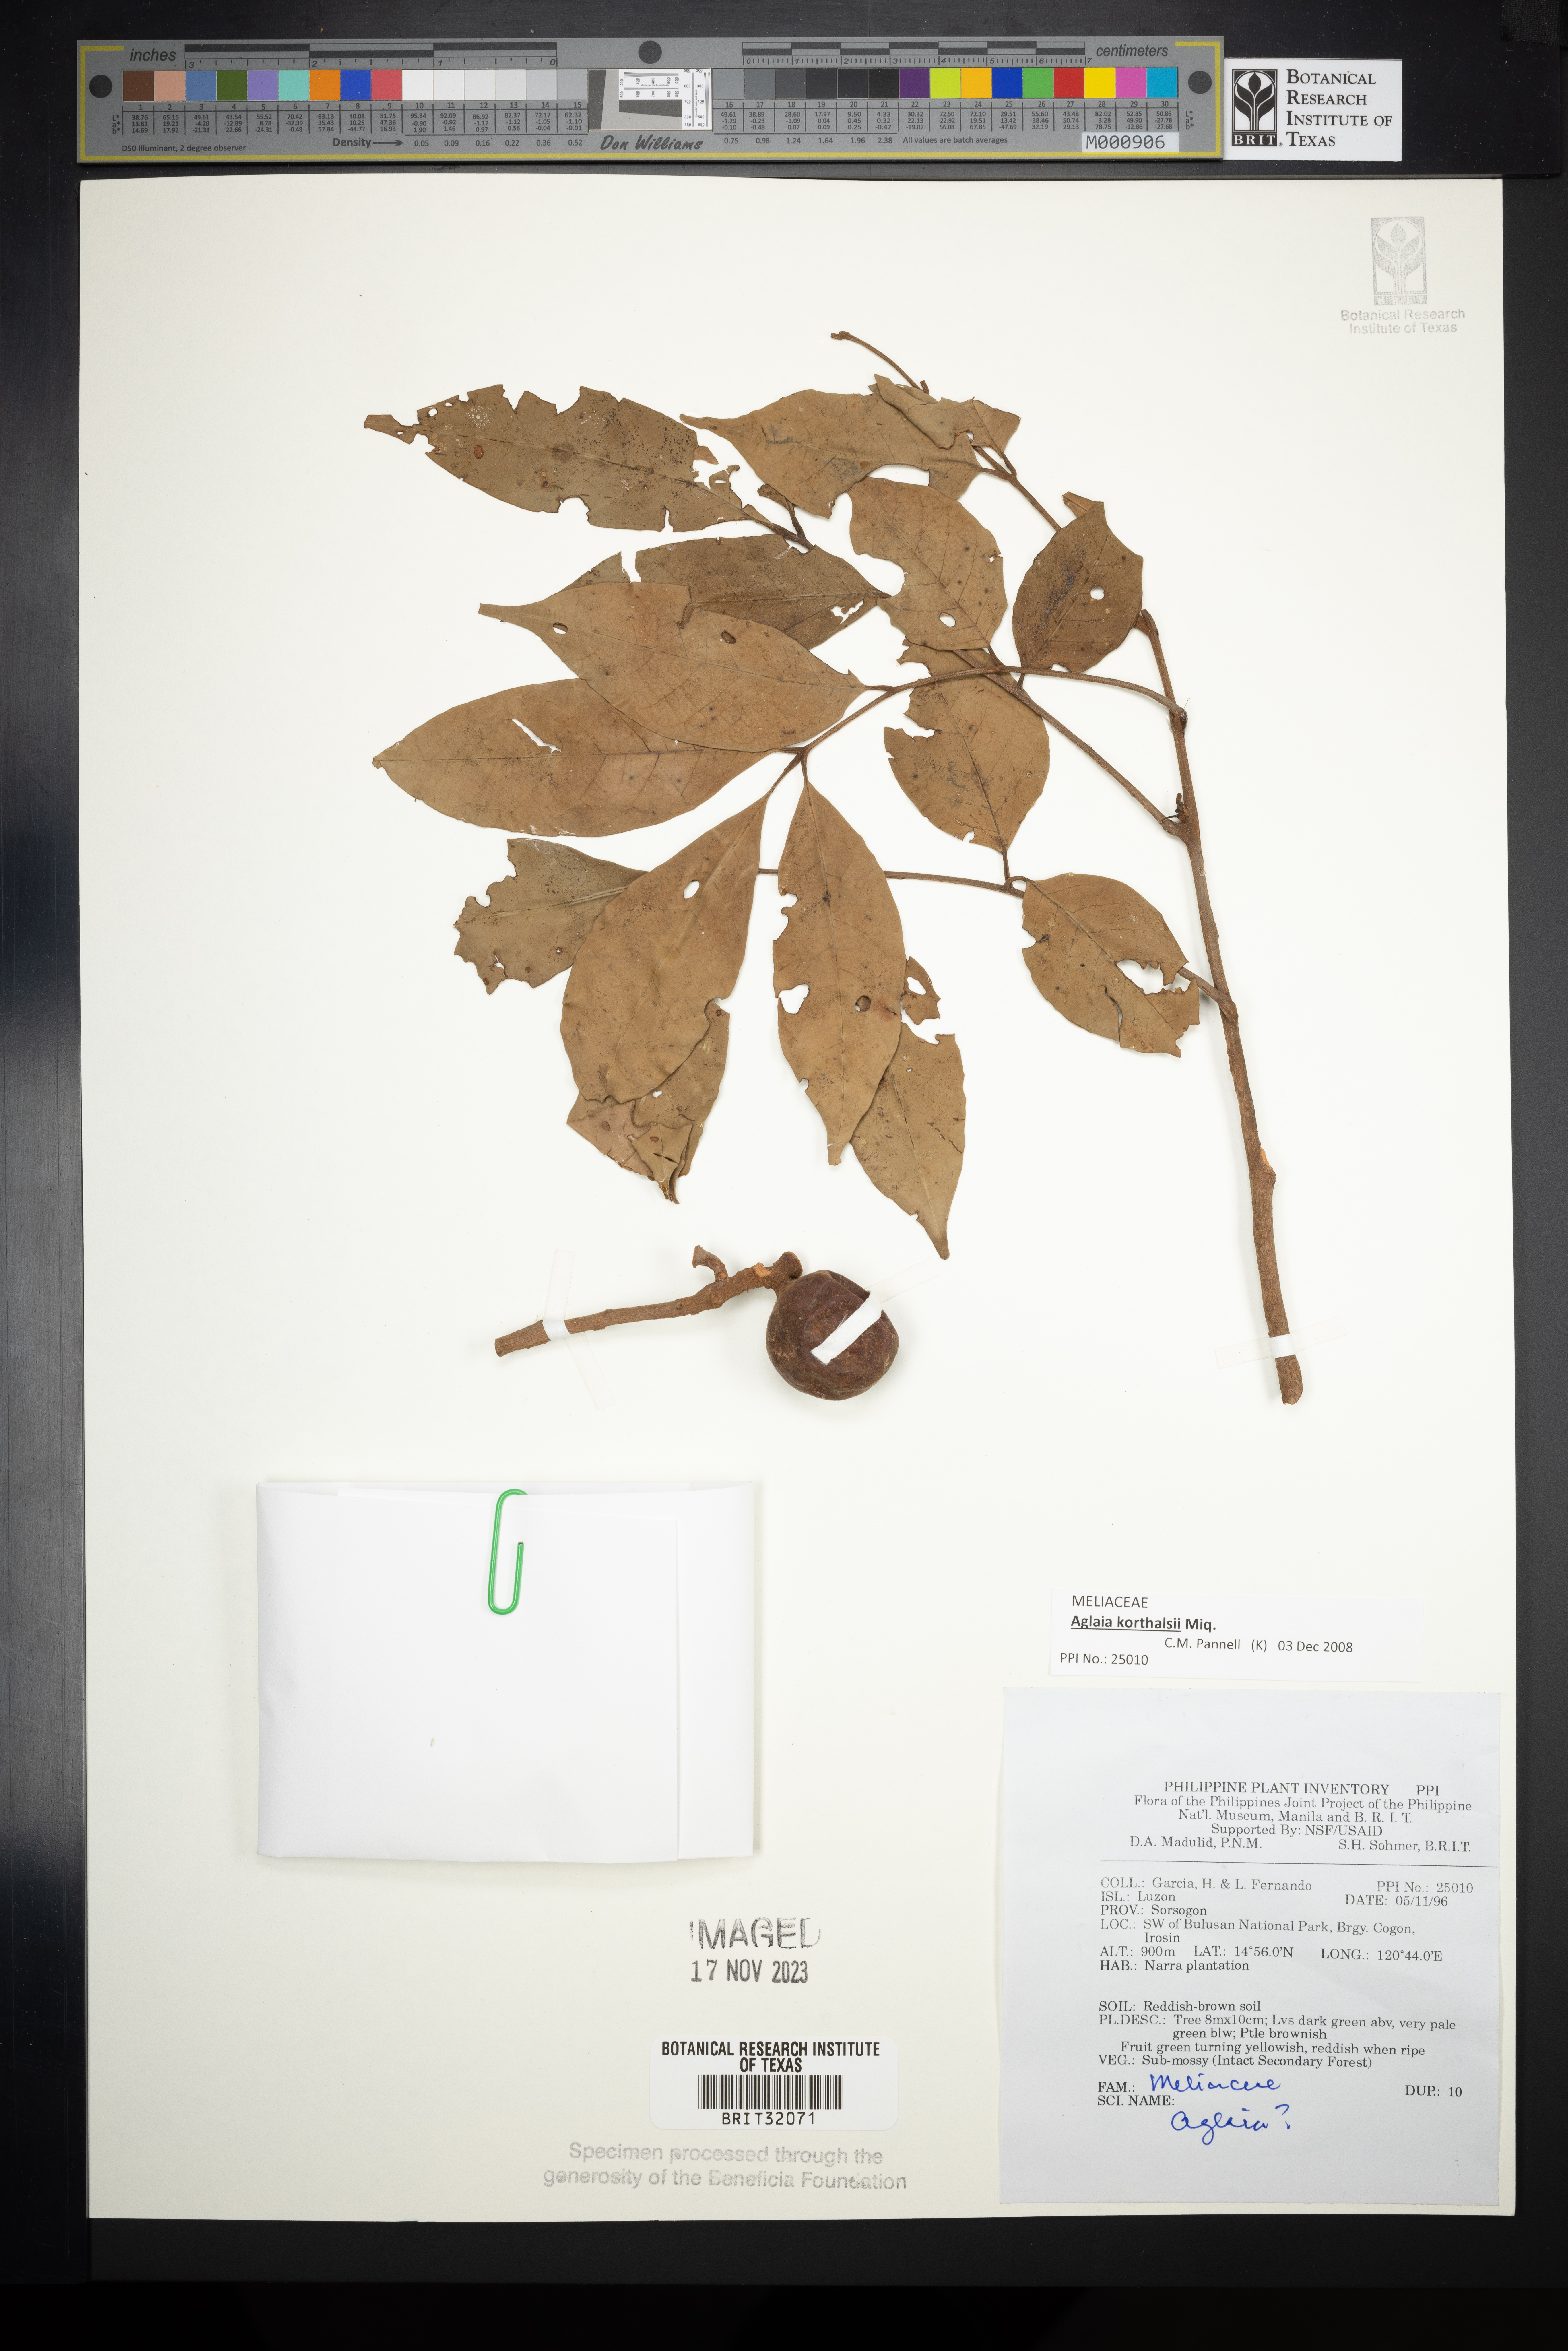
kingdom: Plantae
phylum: Tracheophyta
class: Magnoliopsida
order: Sapindales
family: Meliaceae
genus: Aglaia
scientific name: Aglaia
